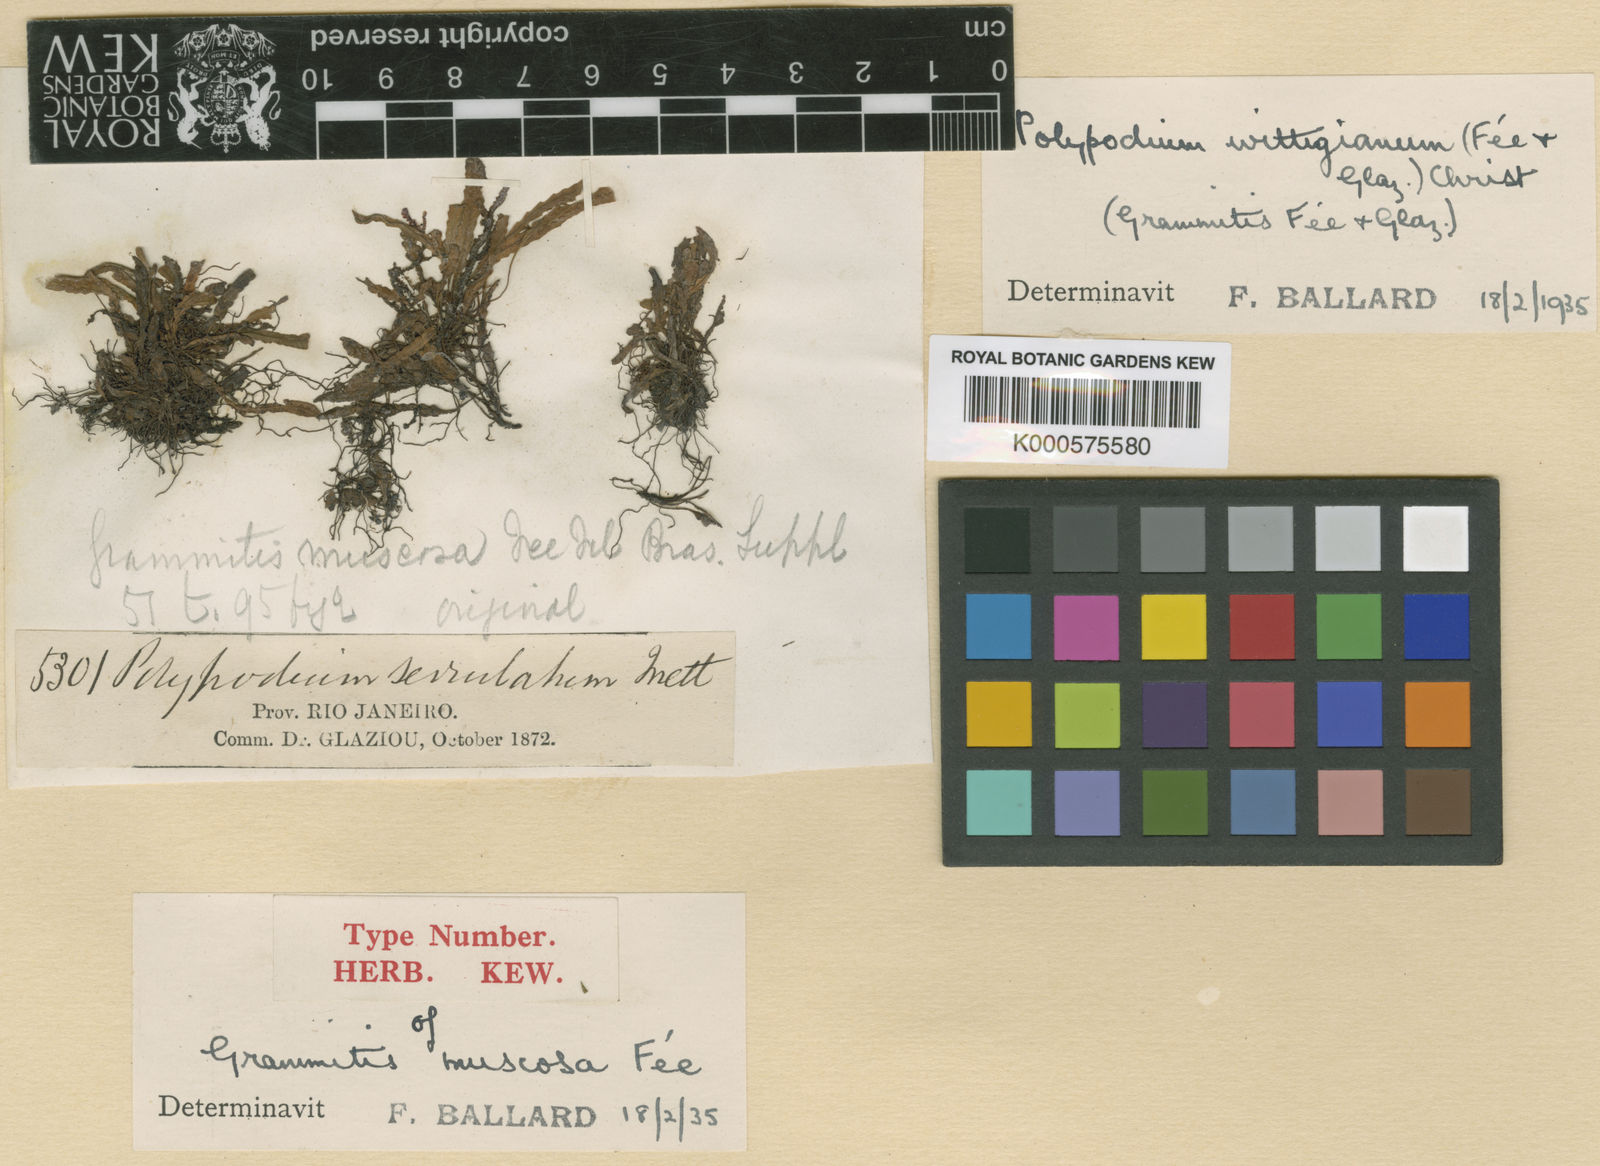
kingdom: Plantae
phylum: Tracheophyta
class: Polypodiopsida
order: Polypodiales
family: Polypodiaceae
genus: Lellingeria
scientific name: Lellingeria
